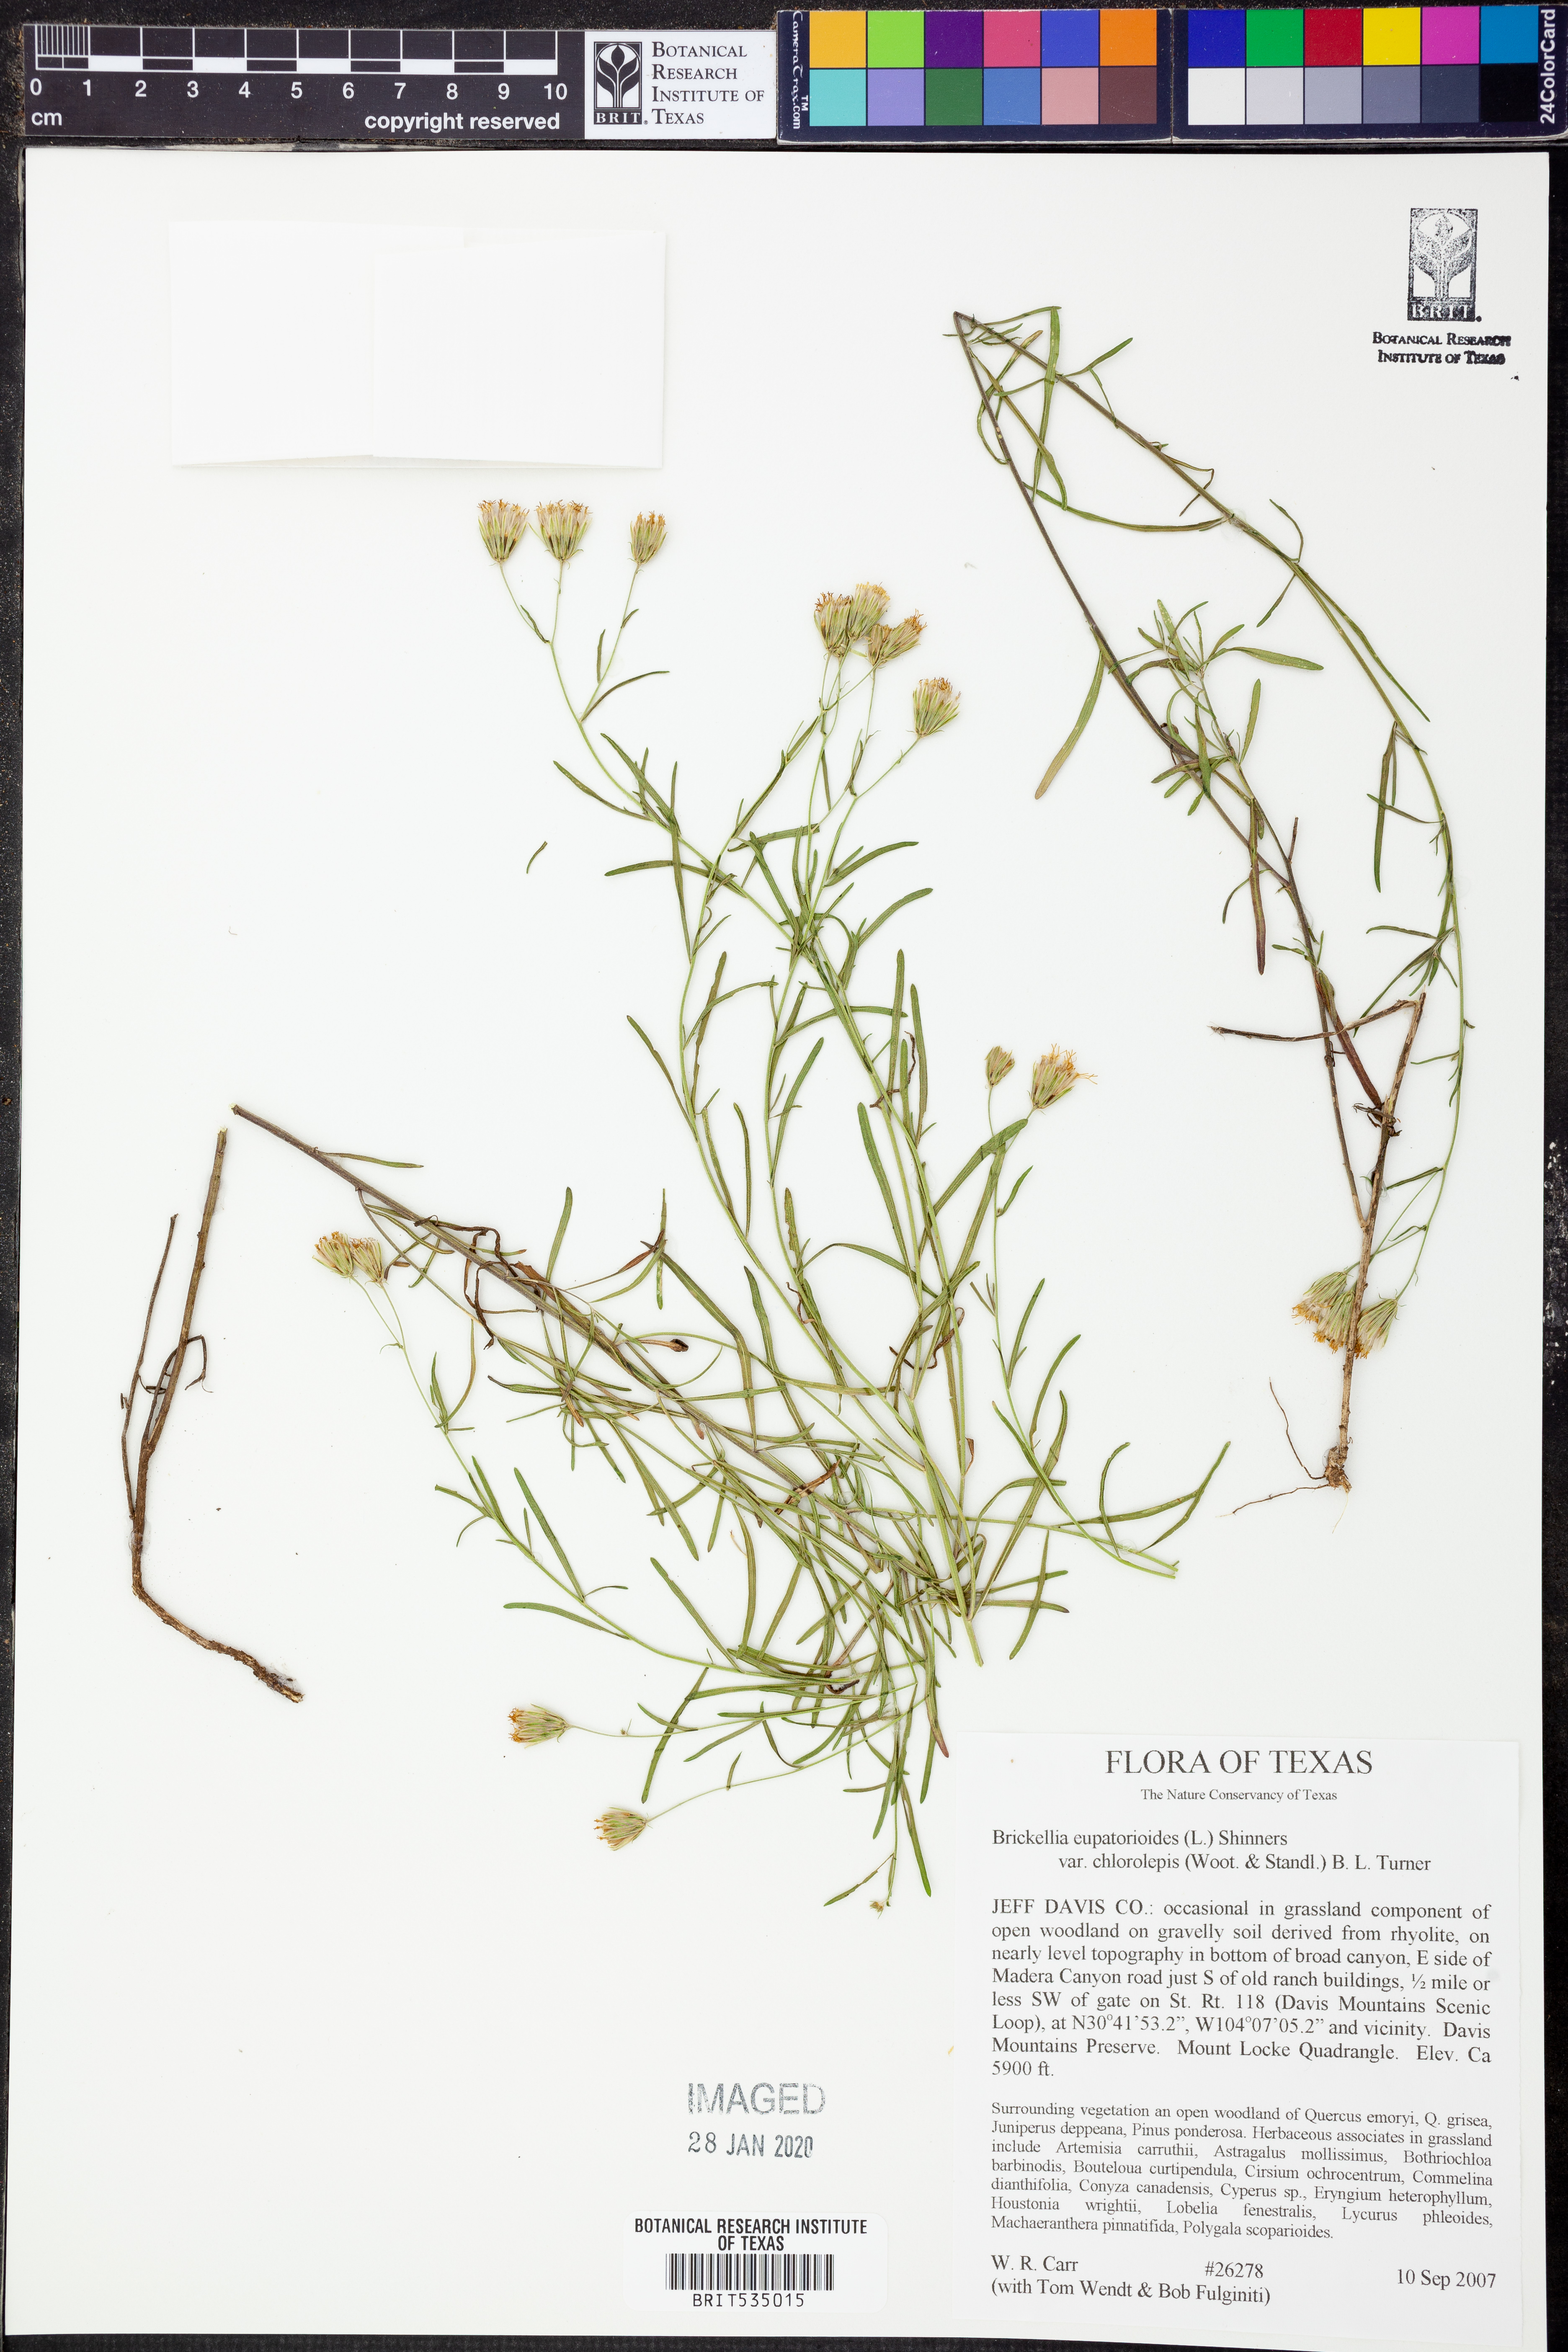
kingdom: Plantae
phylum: Tracheophyta
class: Magnoliopsida
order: Asterales
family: Asteraceae
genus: Brickellia
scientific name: Brickellia leptophylla
